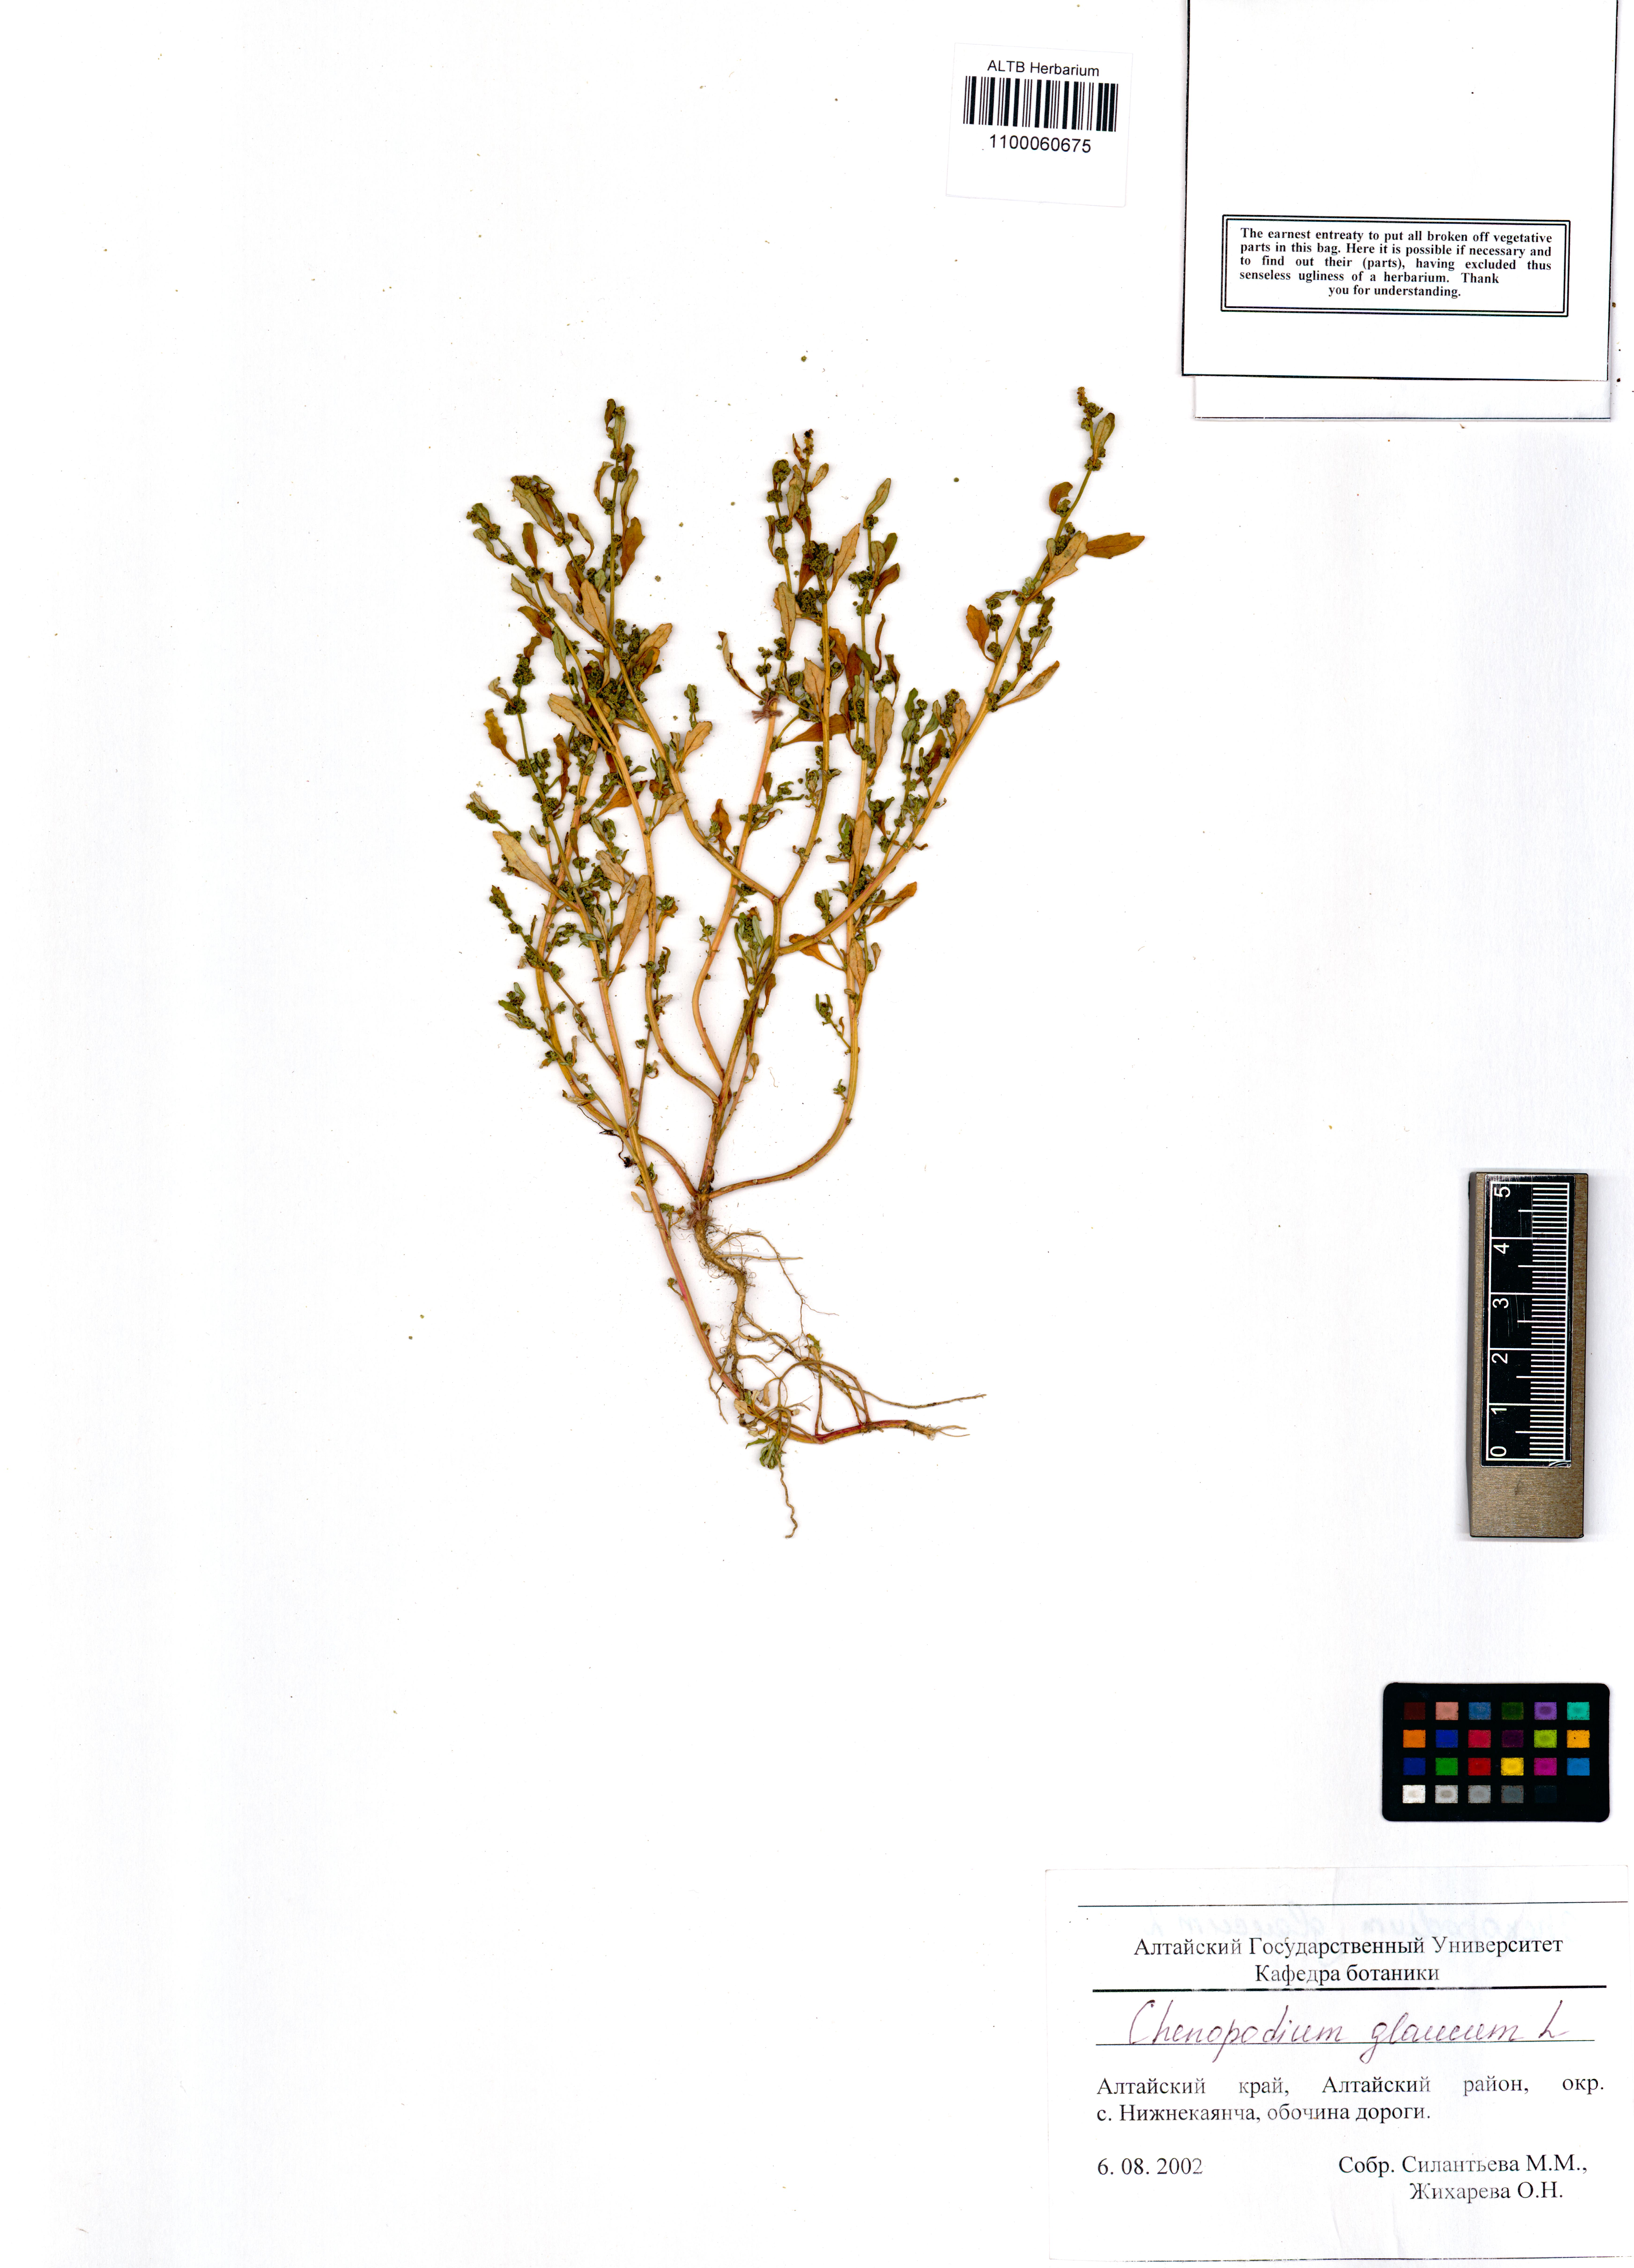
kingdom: Plantae
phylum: Tracheophyta
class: Magnoliopsida
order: Caryophyllales
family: Amaranthaceae
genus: Oxybasis
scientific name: Oxybasis glauca
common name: Glaucous goosefoot
